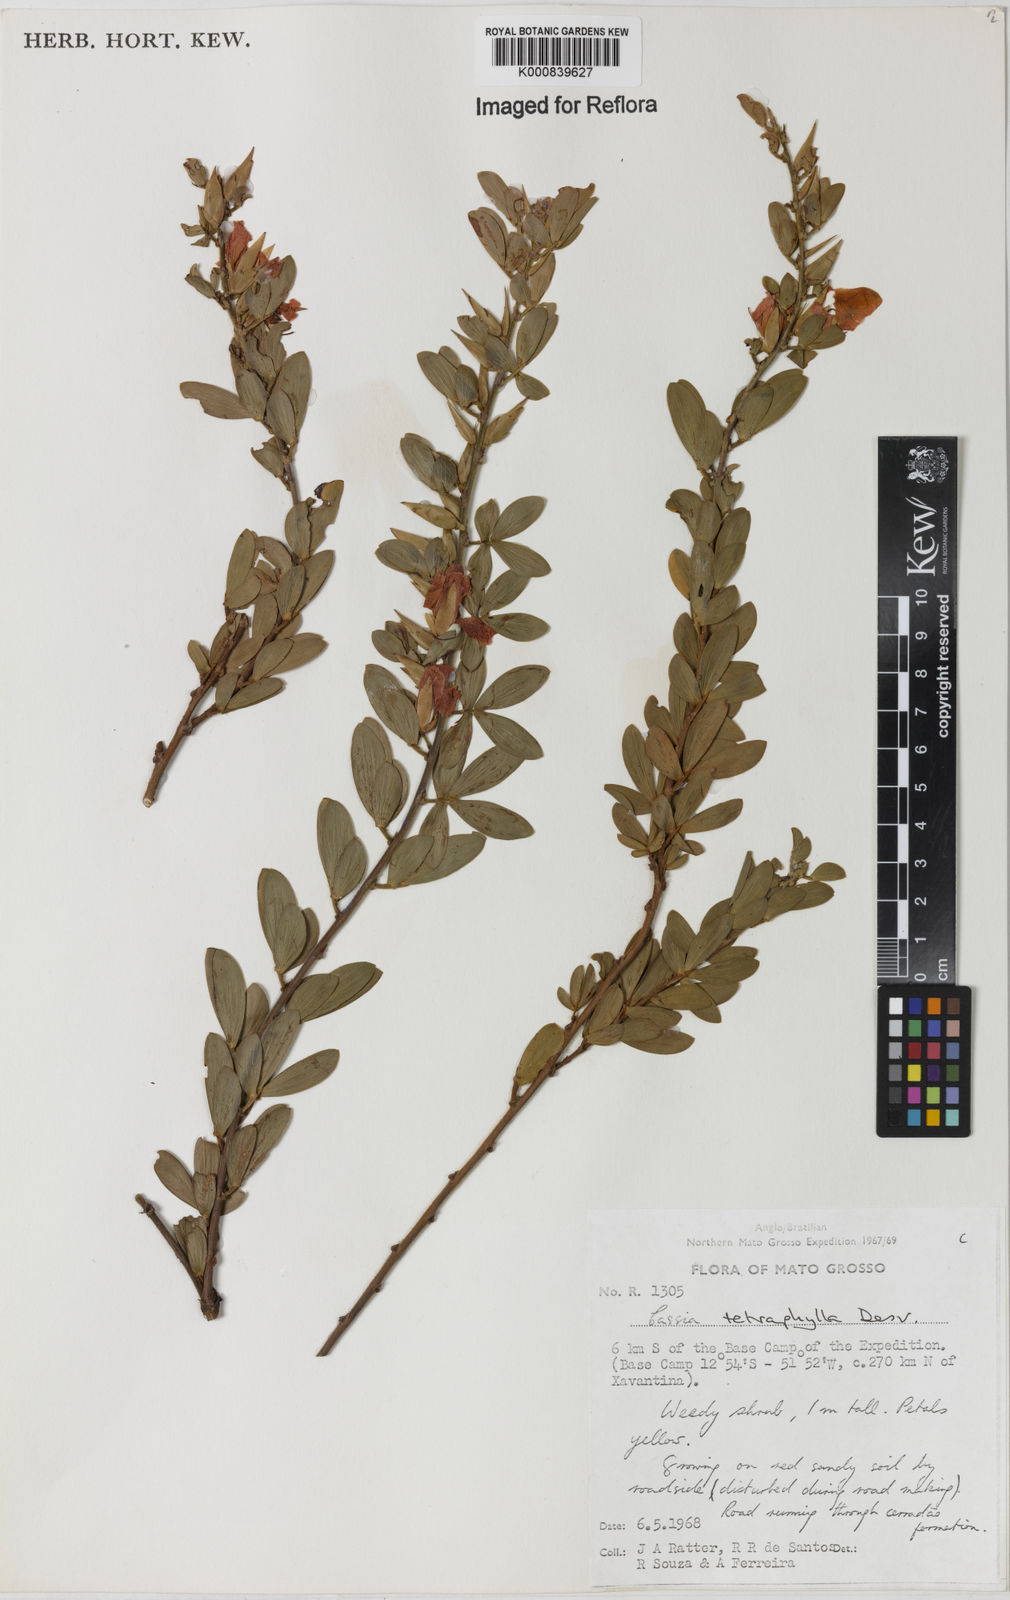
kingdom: Plantae
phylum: Tracheophyta
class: Magnoliopsida
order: Fabales
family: Fabaceae
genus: Chamaecrista
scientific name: Chamaecrista desvauxii
